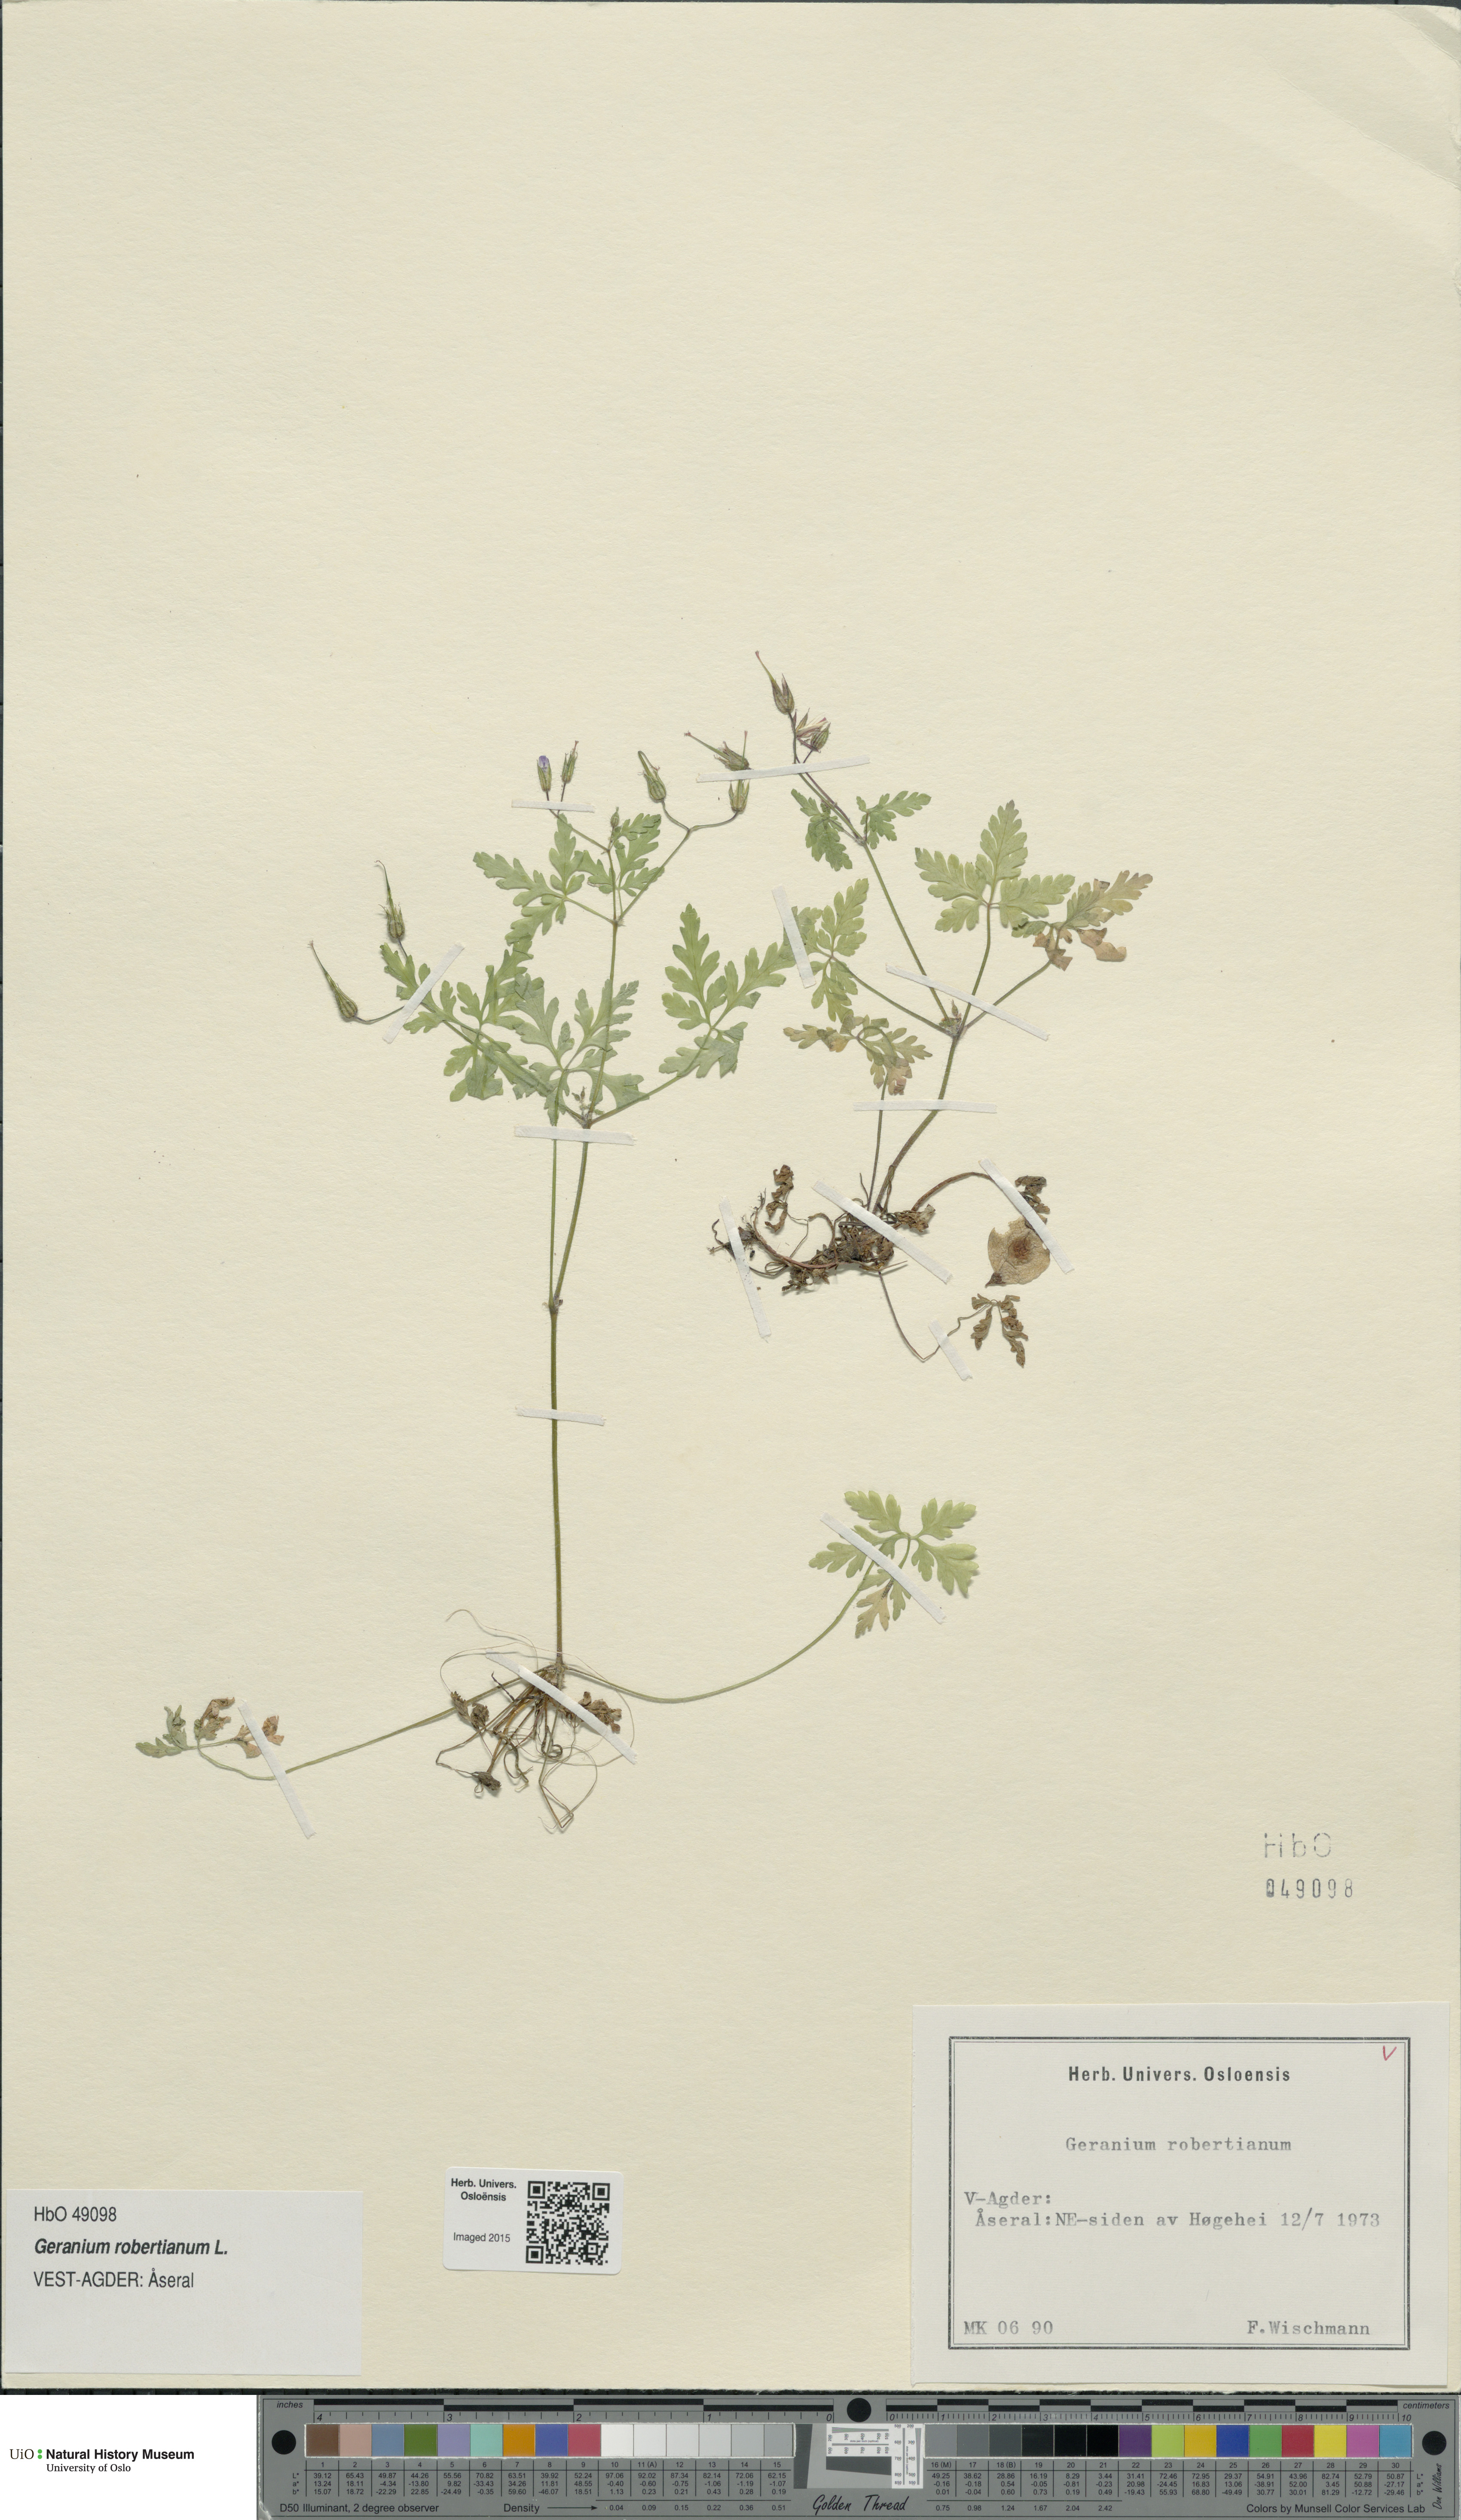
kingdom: Plantae
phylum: Tracheophyta
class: Magnoliopsida
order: Geraniales
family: Geraniaceae
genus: Geranium
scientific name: Geranium robertianum
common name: Herb-robert
